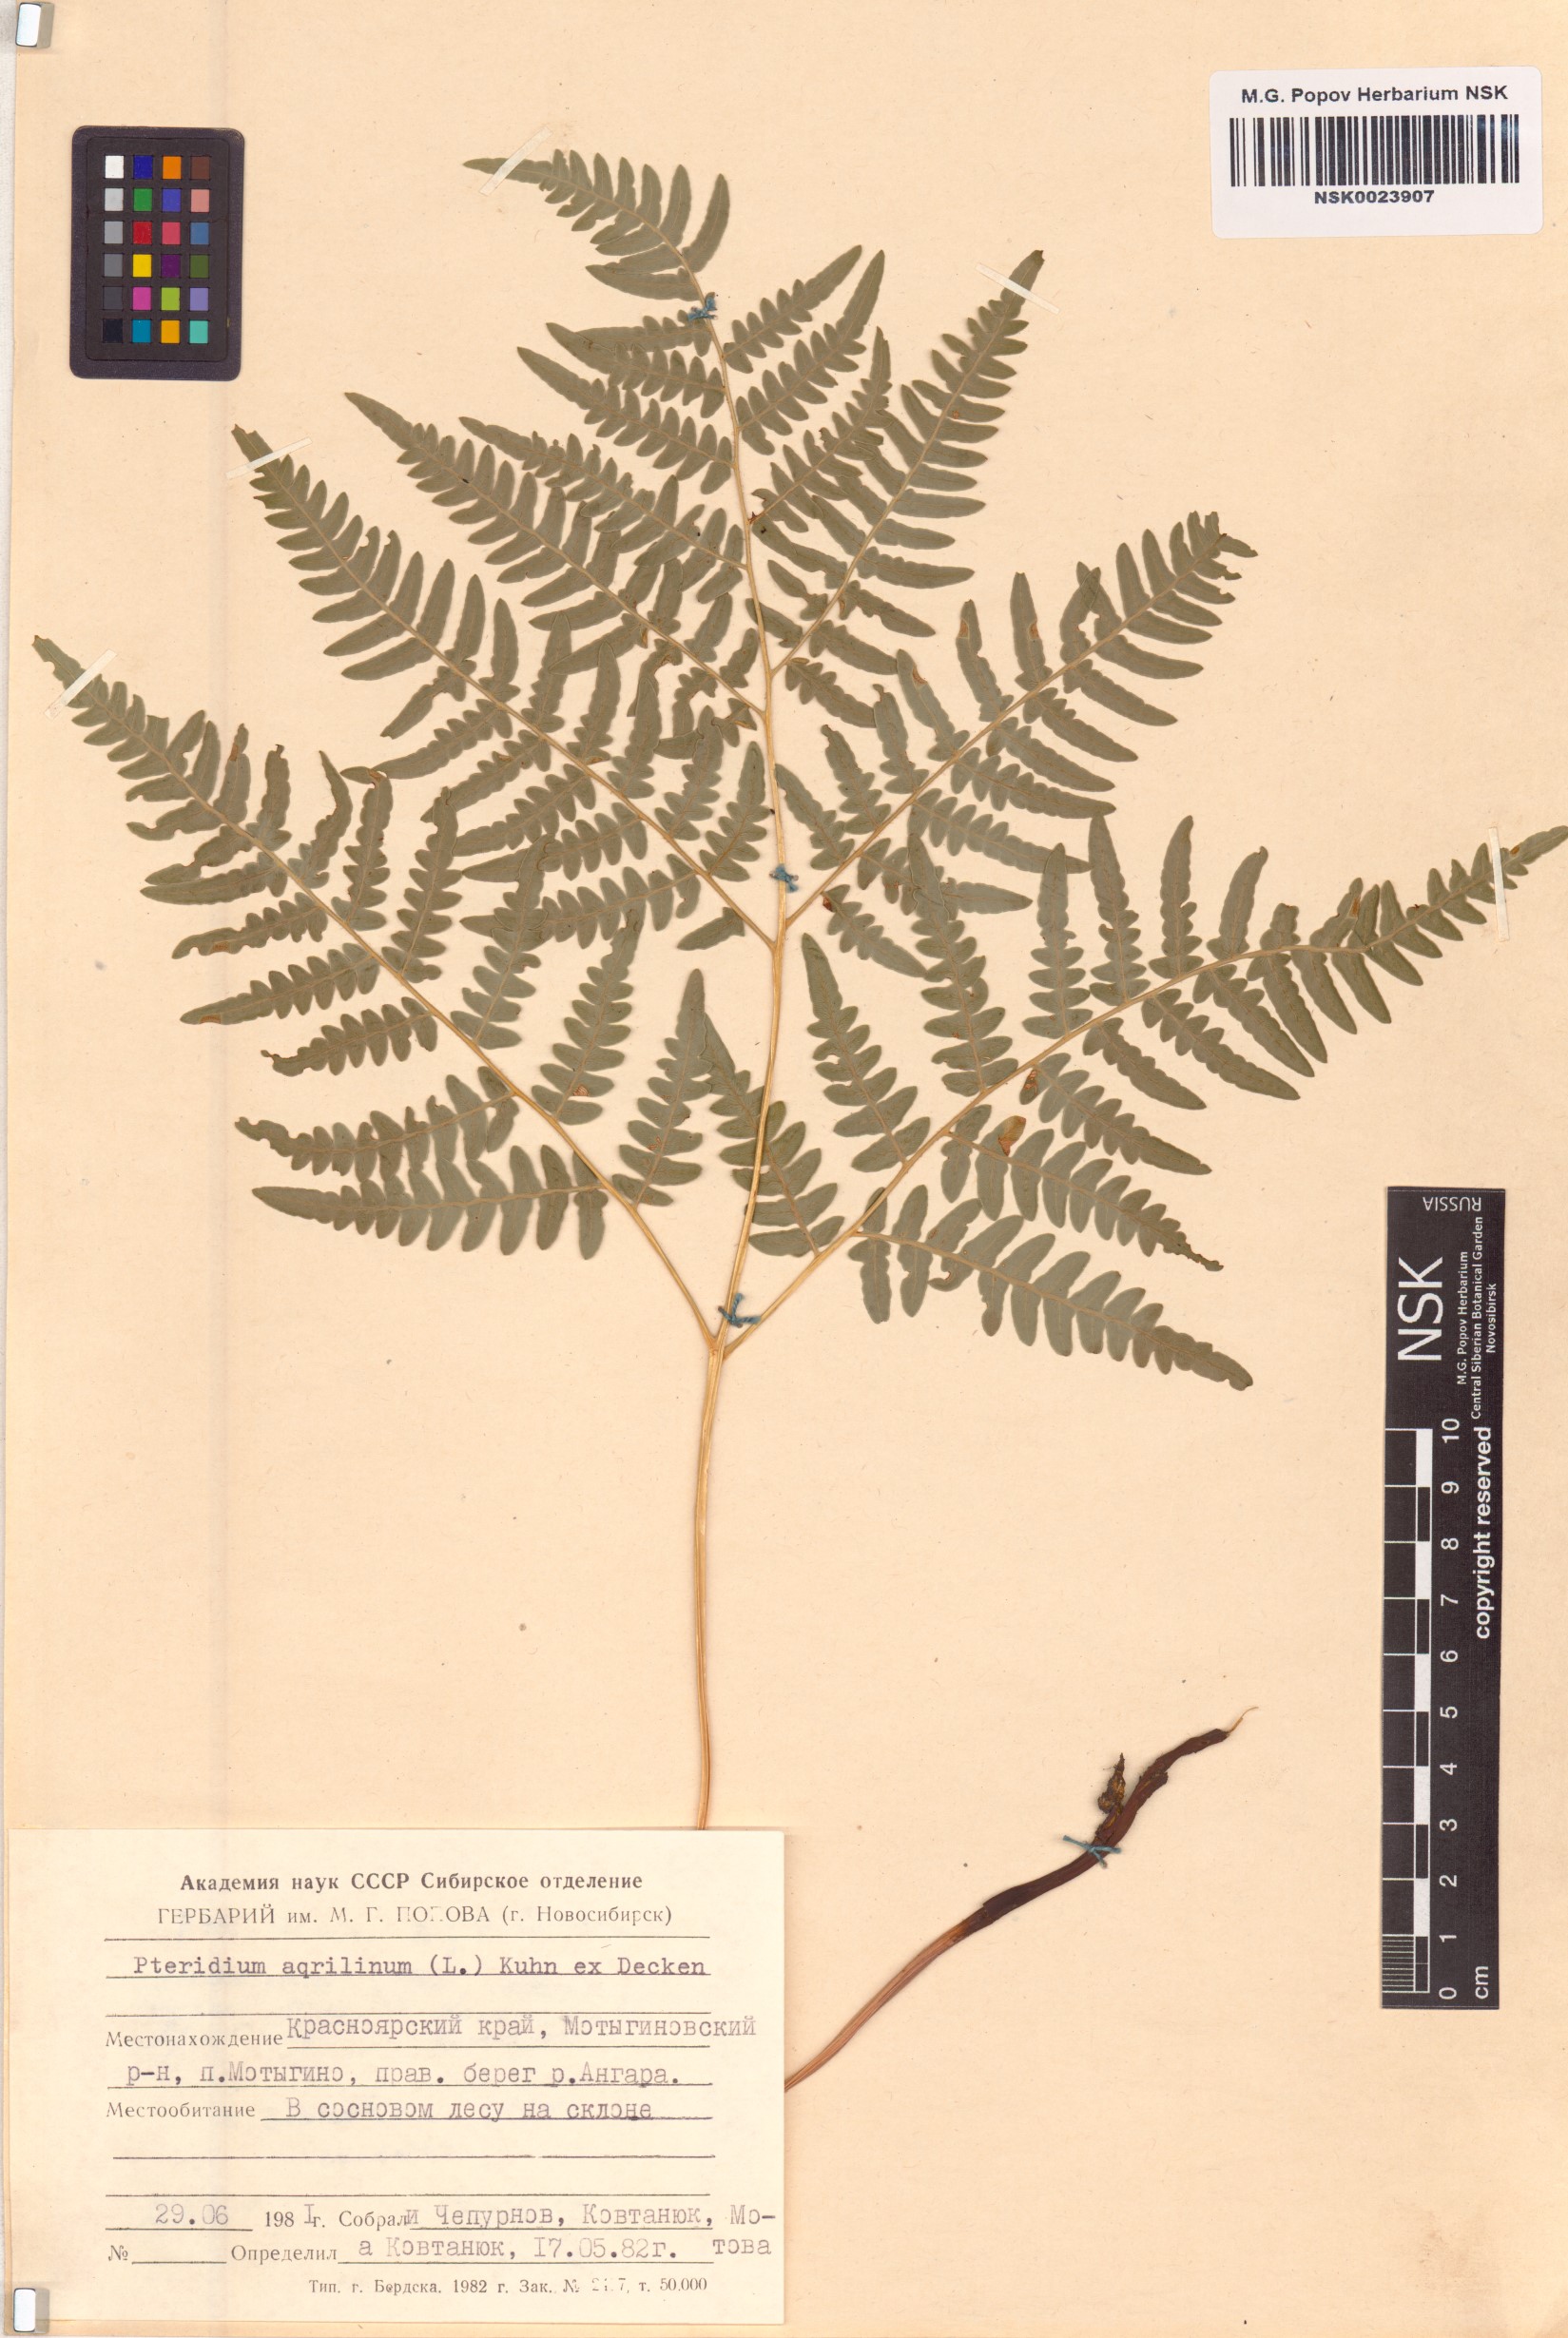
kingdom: Plantae
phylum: Tracheophyta
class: Polypodiopsida
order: Polypodiales
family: Dennstaedtiaceae
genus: Pteridium
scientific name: Pteridium aquilinum
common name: Bracken
